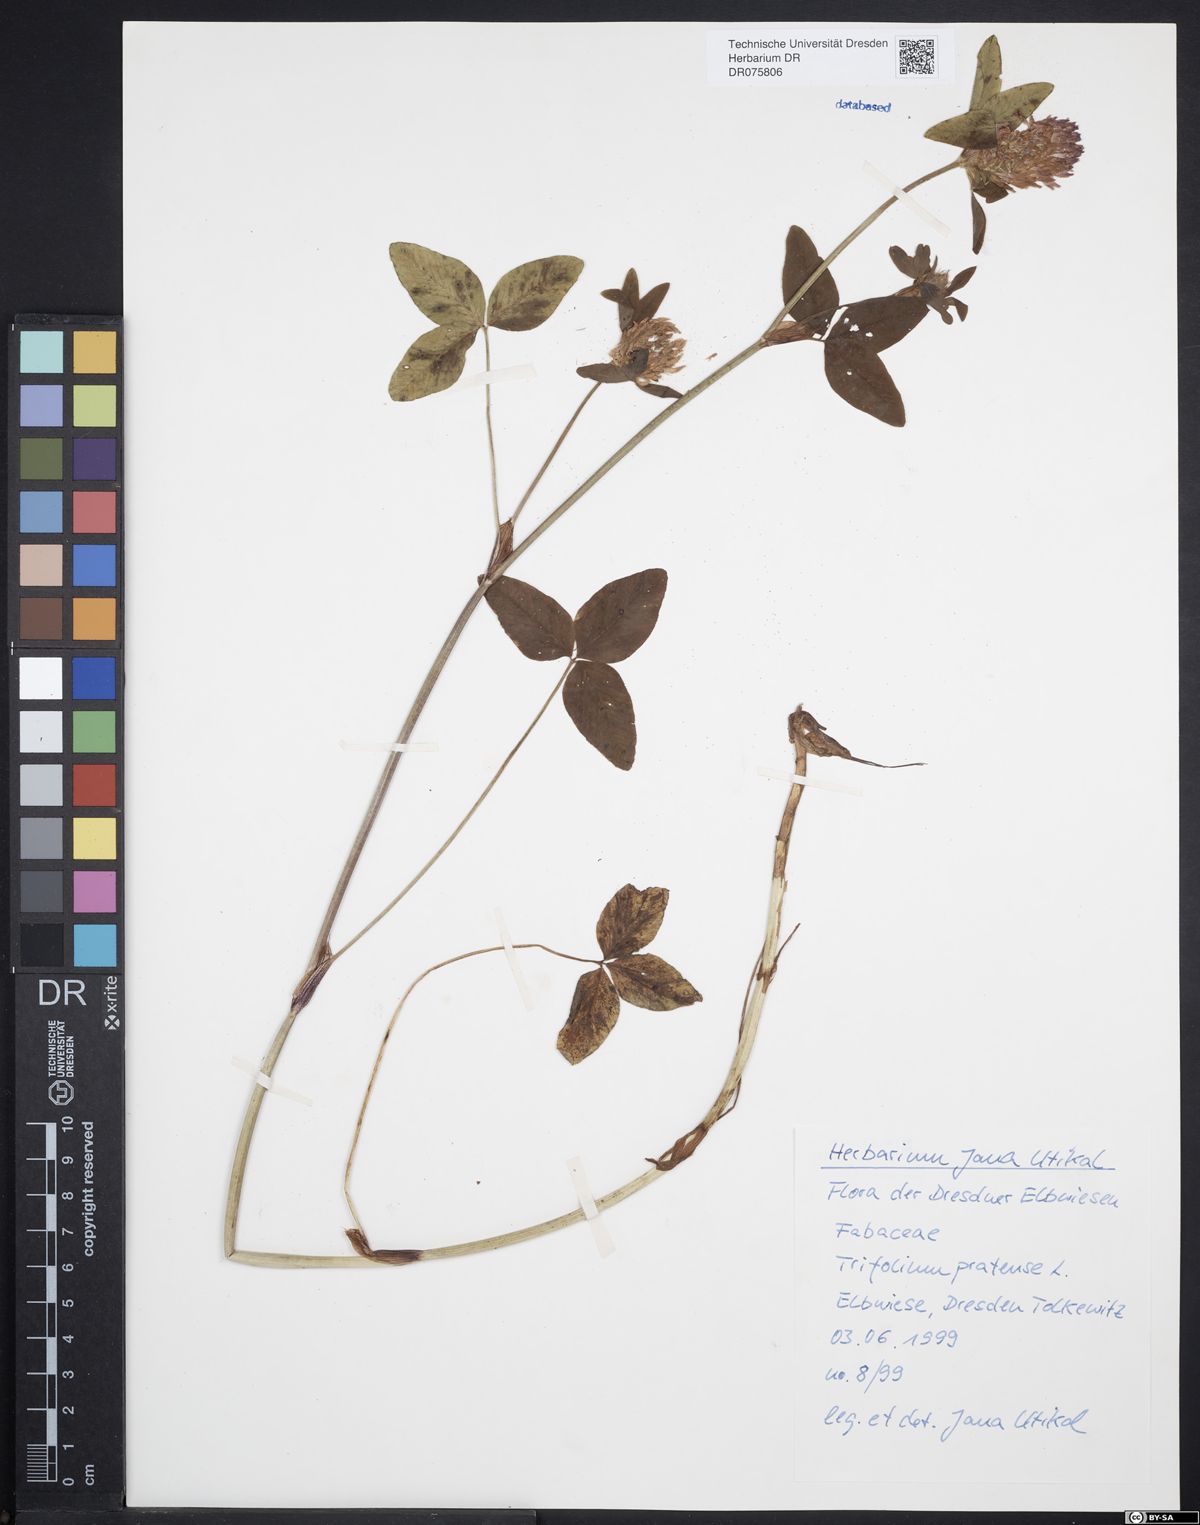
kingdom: Plantae
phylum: Tracheophyta
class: Magnoliopsida
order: Fabales
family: Fabaceae
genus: Trifolium
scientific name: Trifolium pratense
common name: Red clover
